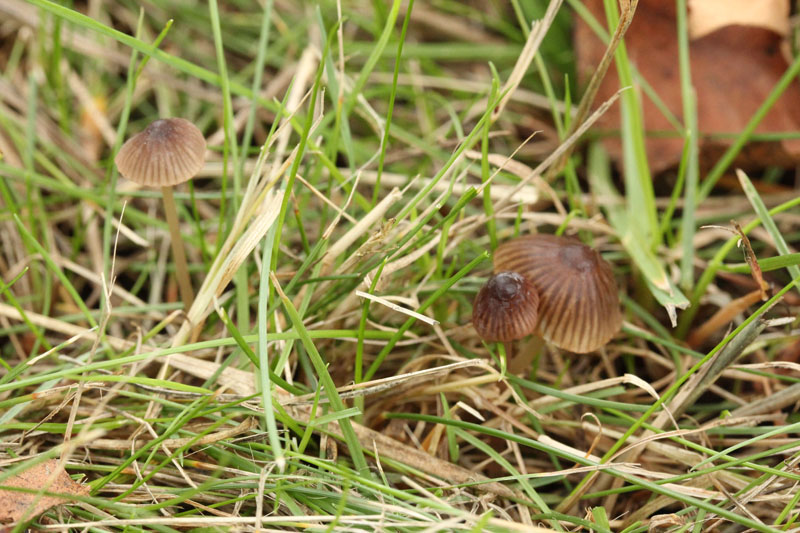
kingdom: Fungi
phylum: Basidiomycota
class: Agaricomycetes
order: Agaricales
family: Mycenaceae
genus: Mycena
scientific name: Mycena olivaceomarginata
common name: brunægget huesvamp
